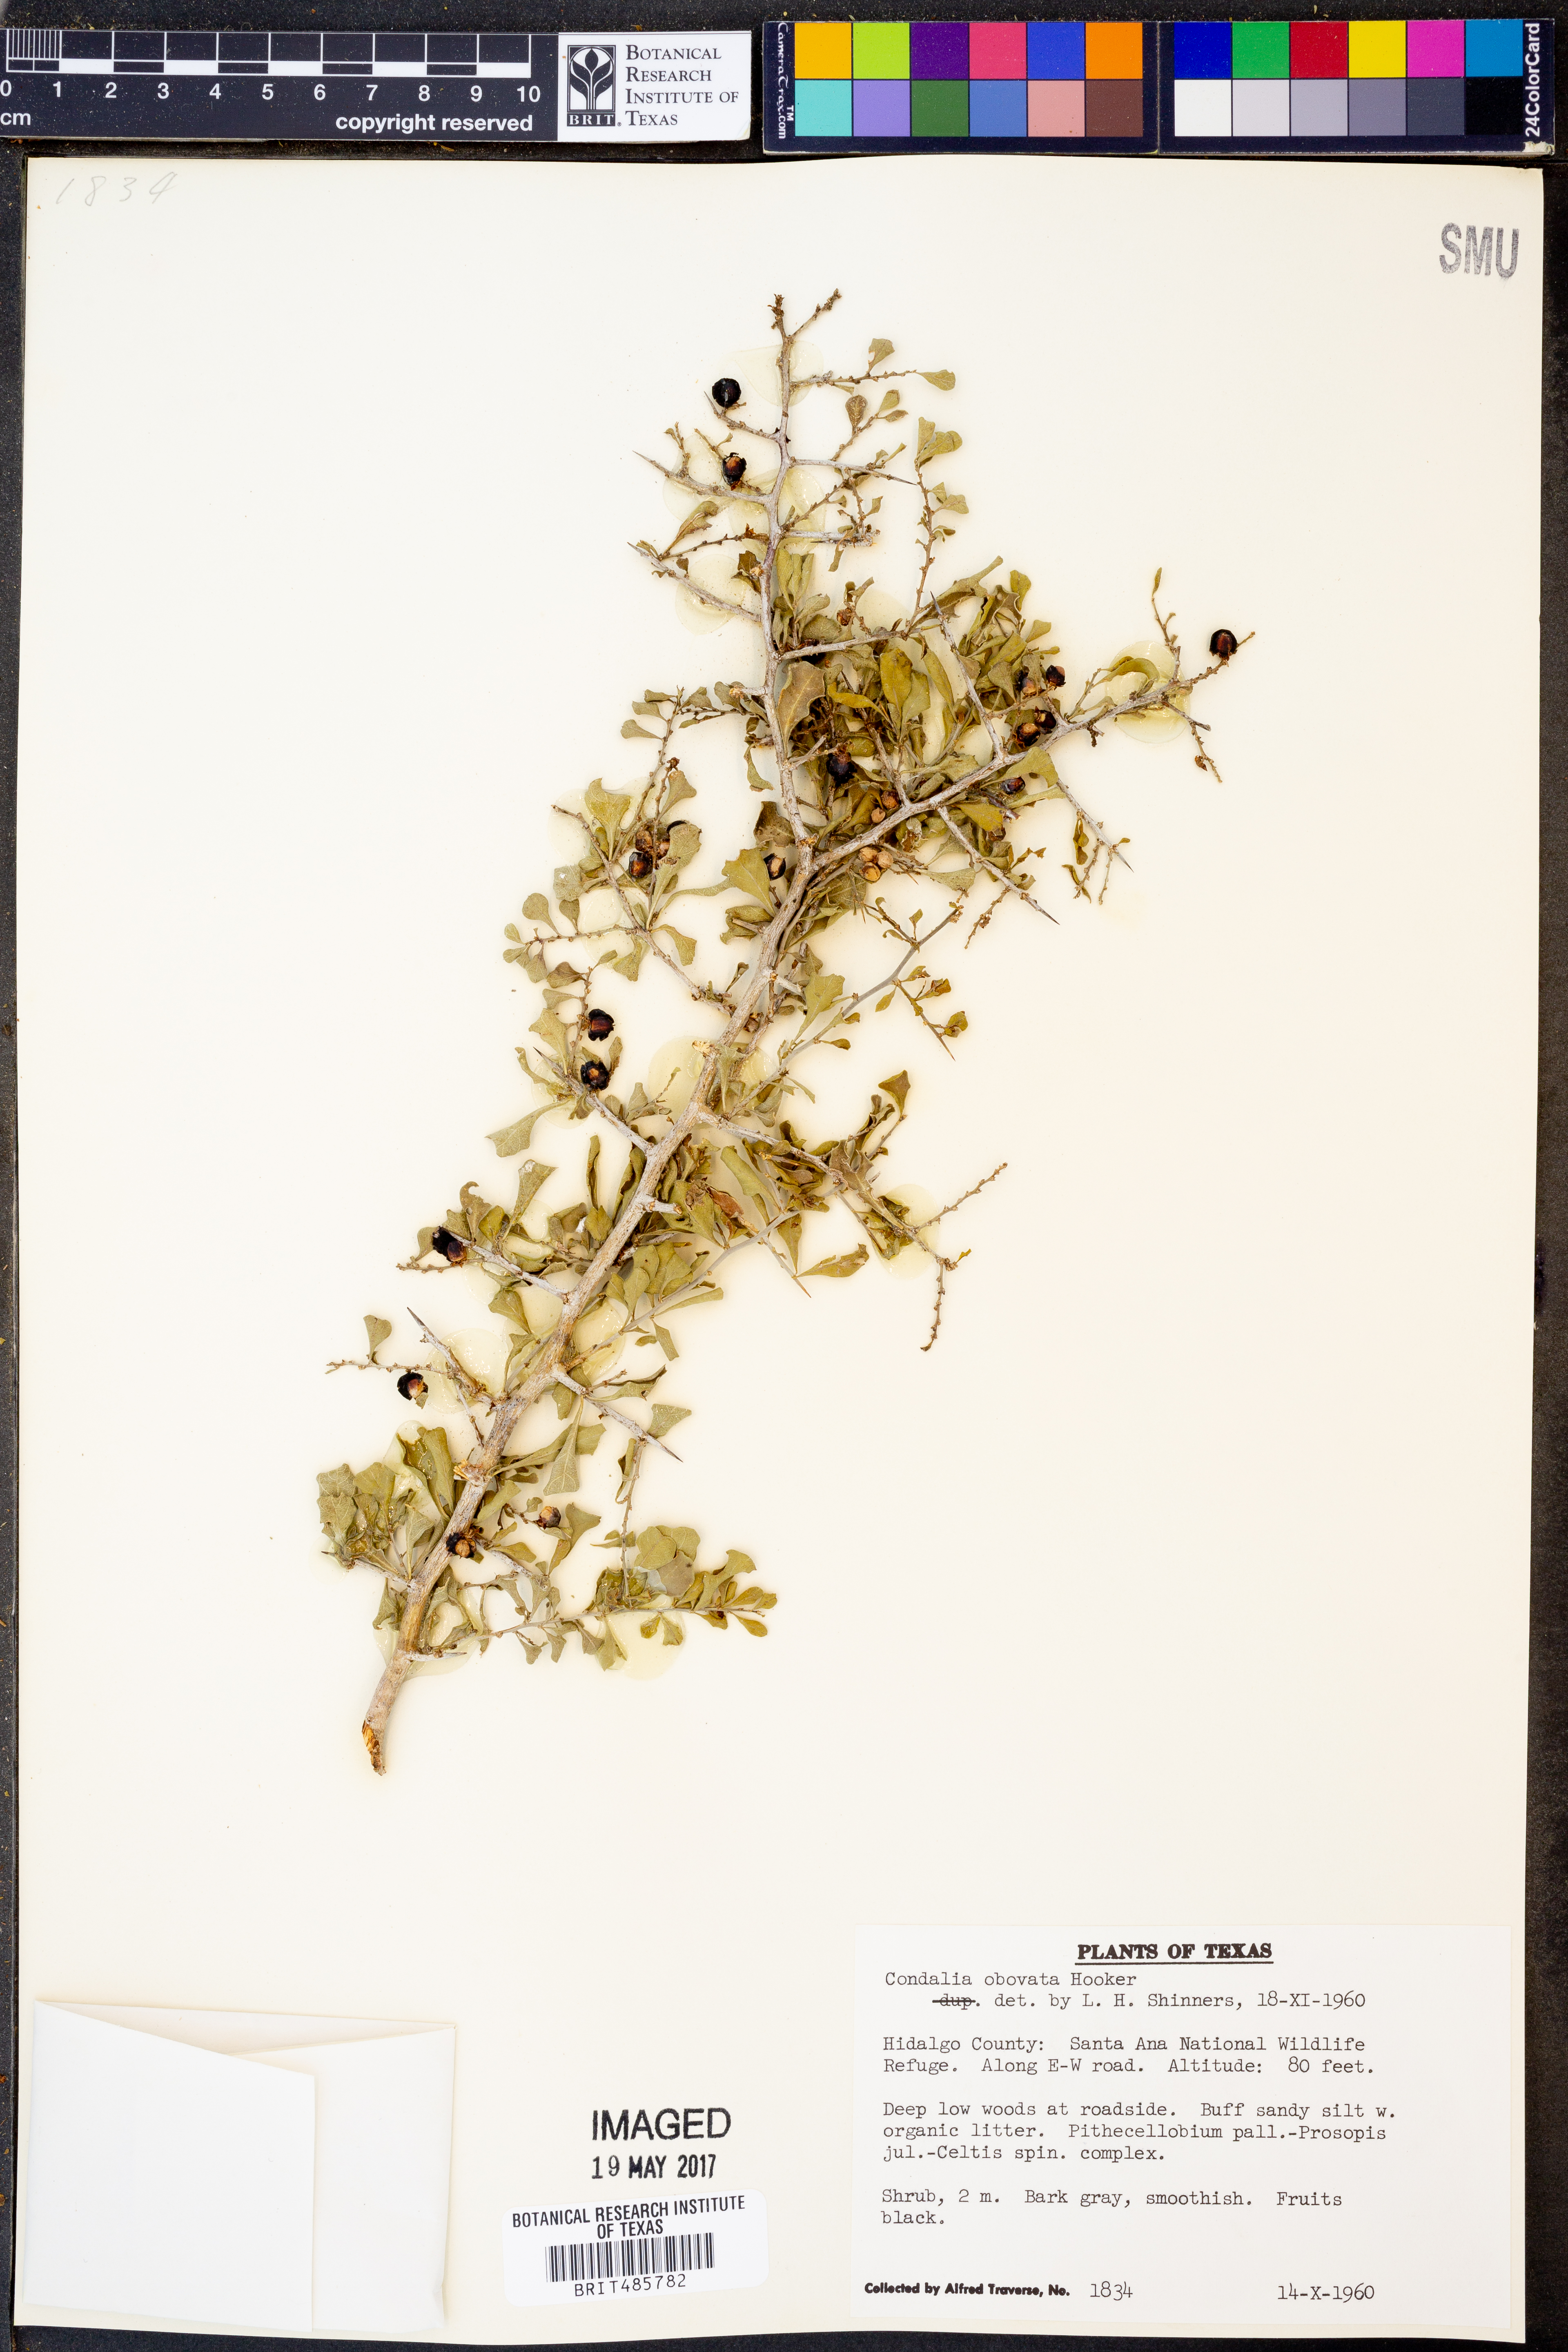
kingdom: Plantae
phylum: Tracheophyta
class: Magnoliopsida
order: Rosales
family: Rhamnaceae
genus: Condalia
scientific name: Condalia hookeri
